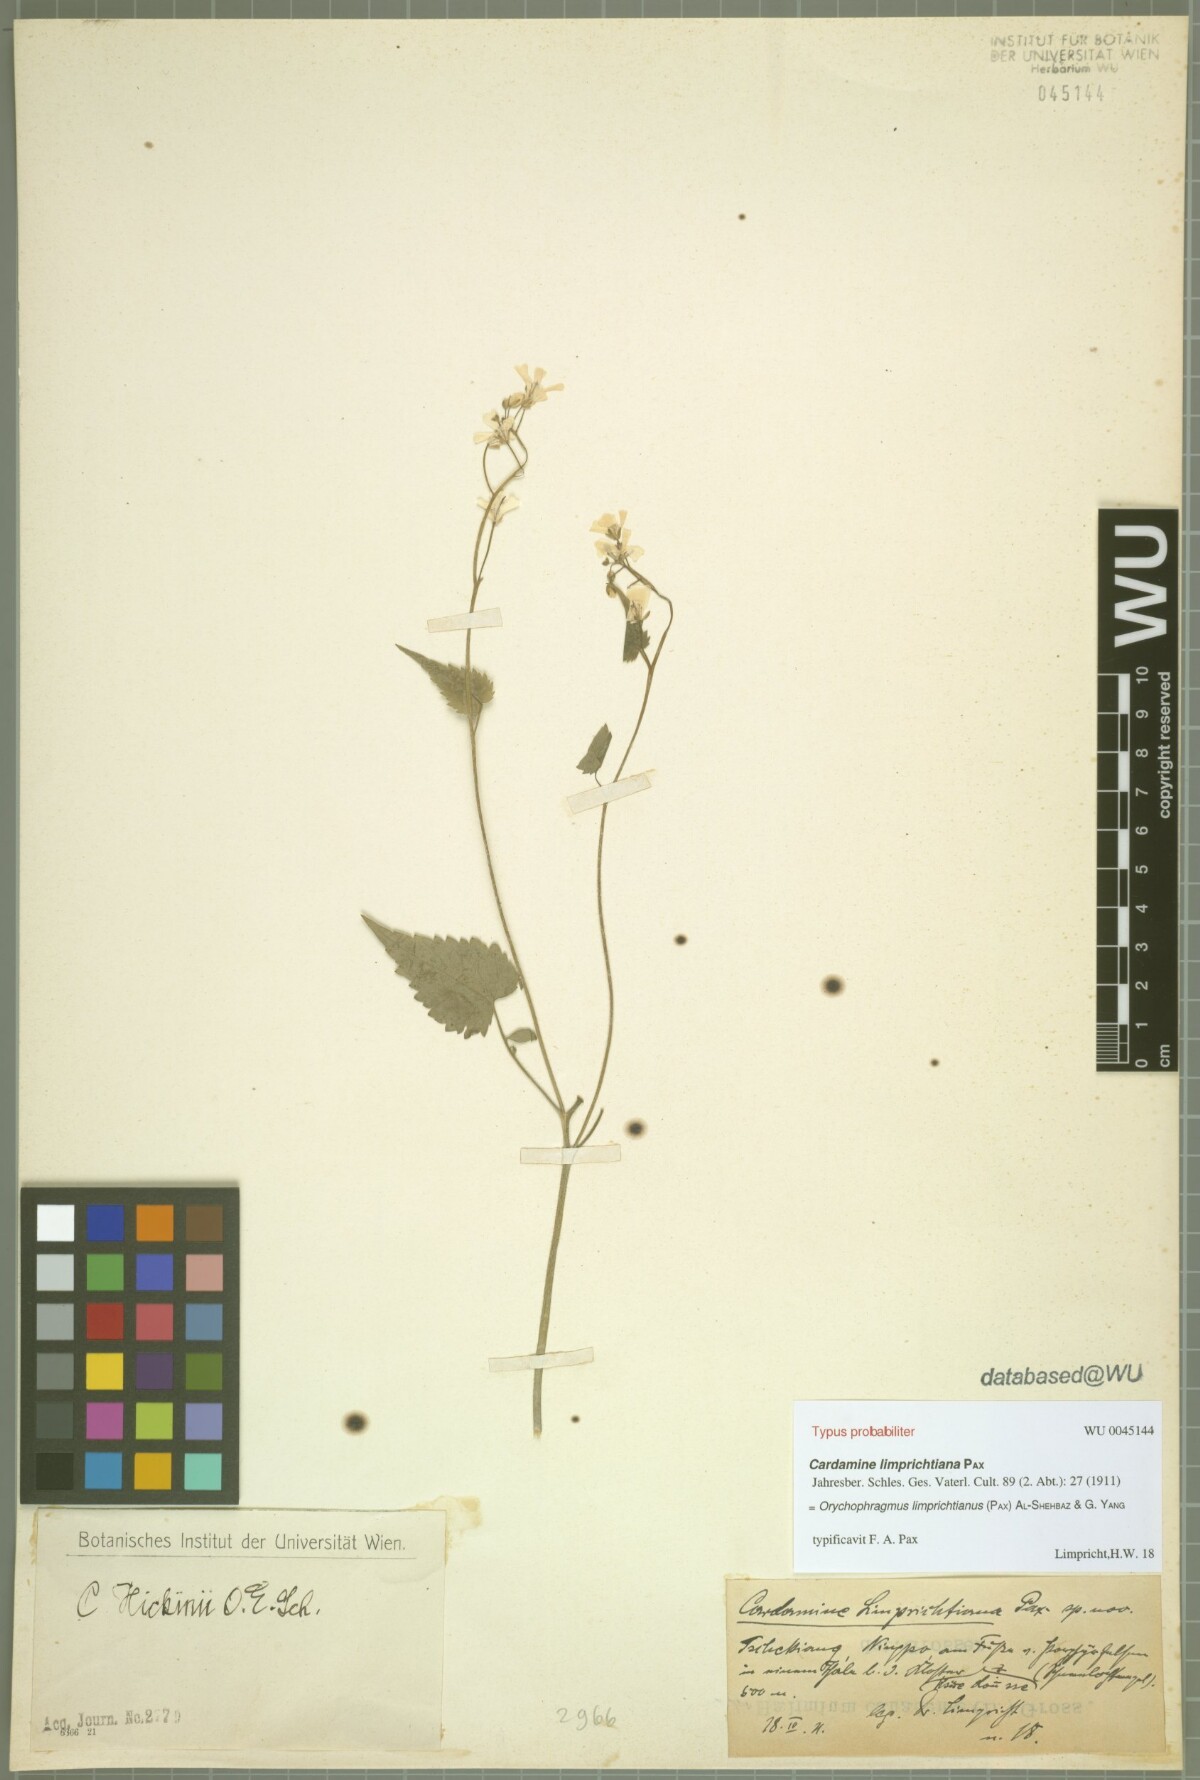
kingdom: Plantae
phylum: Tracheophyta
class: Magnoliopsida
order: Brassicales
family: Brassicaceae
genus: Sinalliaria
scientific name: Sinalliaria limprichtiana
